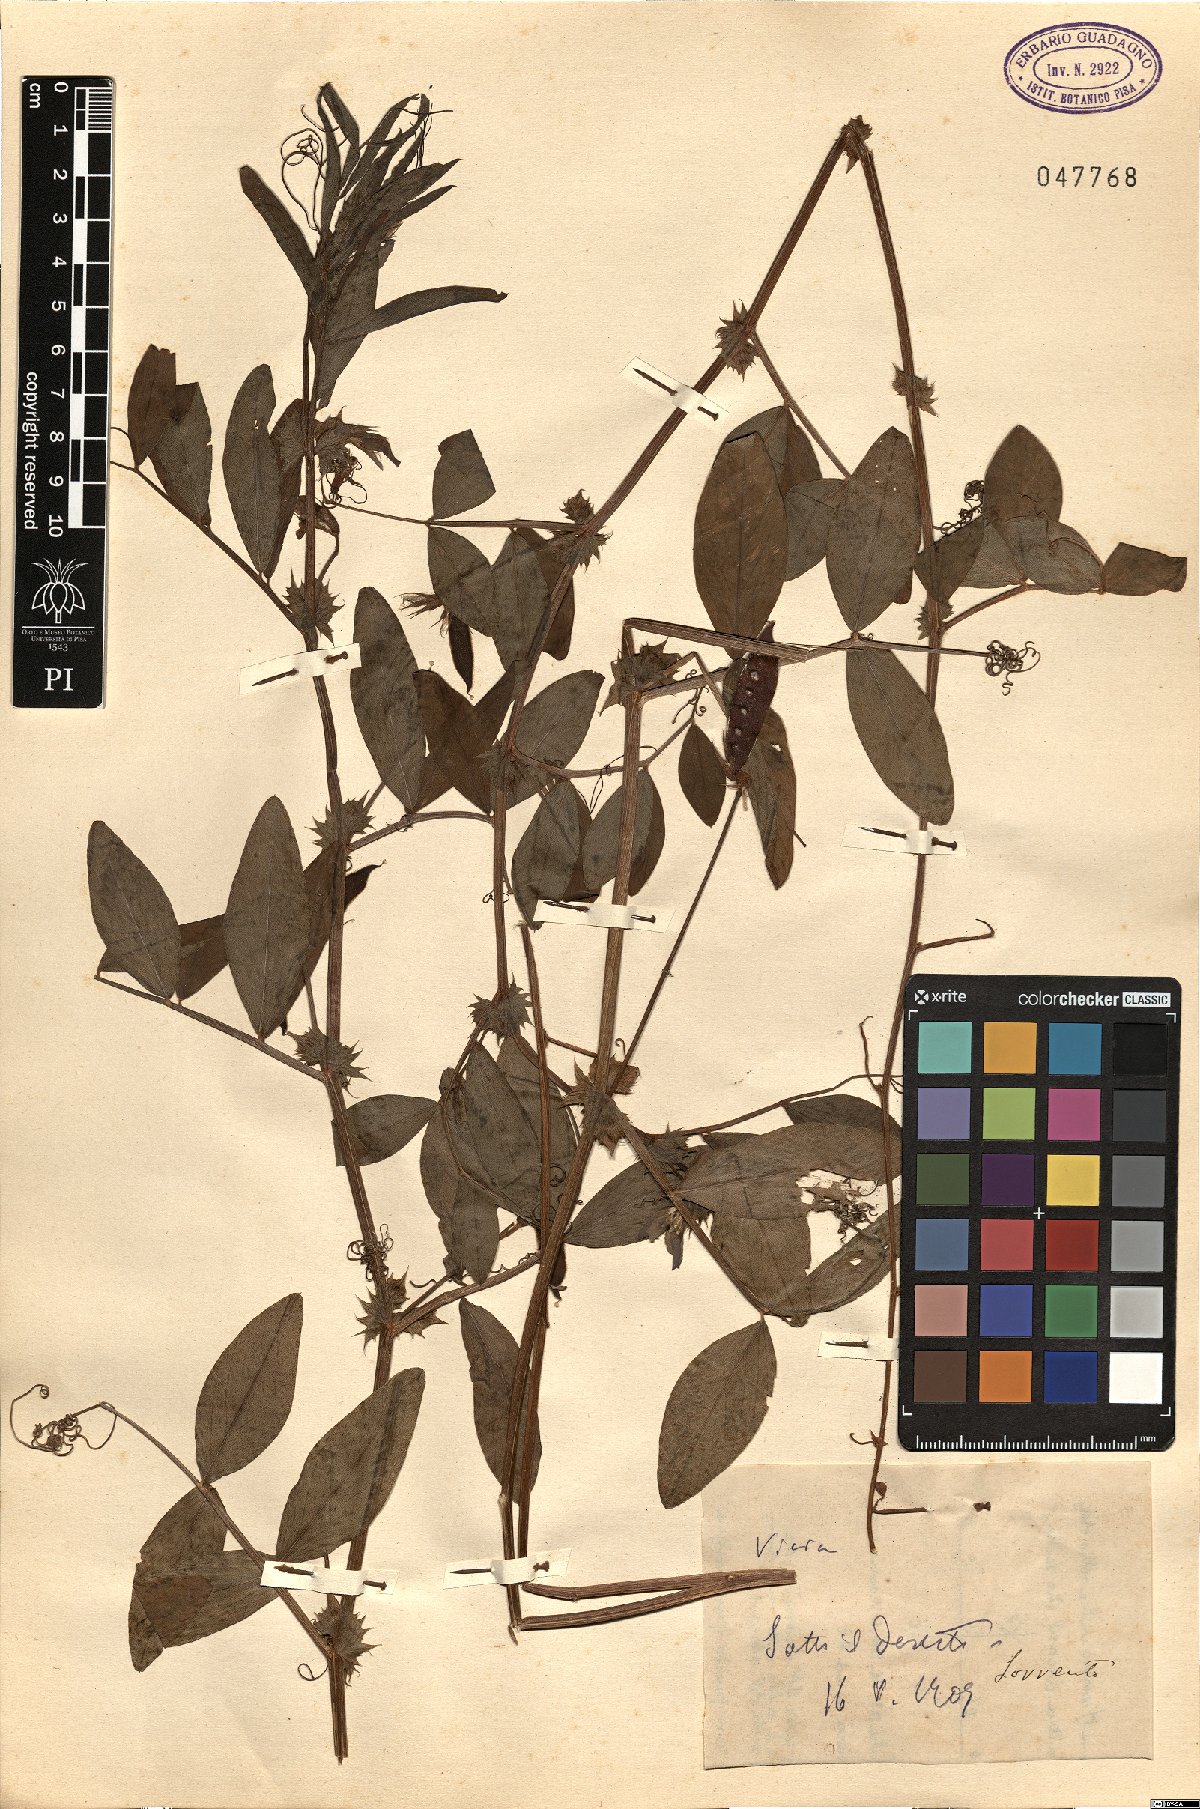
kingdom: Plantae
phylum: Tracheophyta
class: Magnoliopsida
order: Fabales
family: Fabaceae
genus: Vicia
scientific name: Vicia
